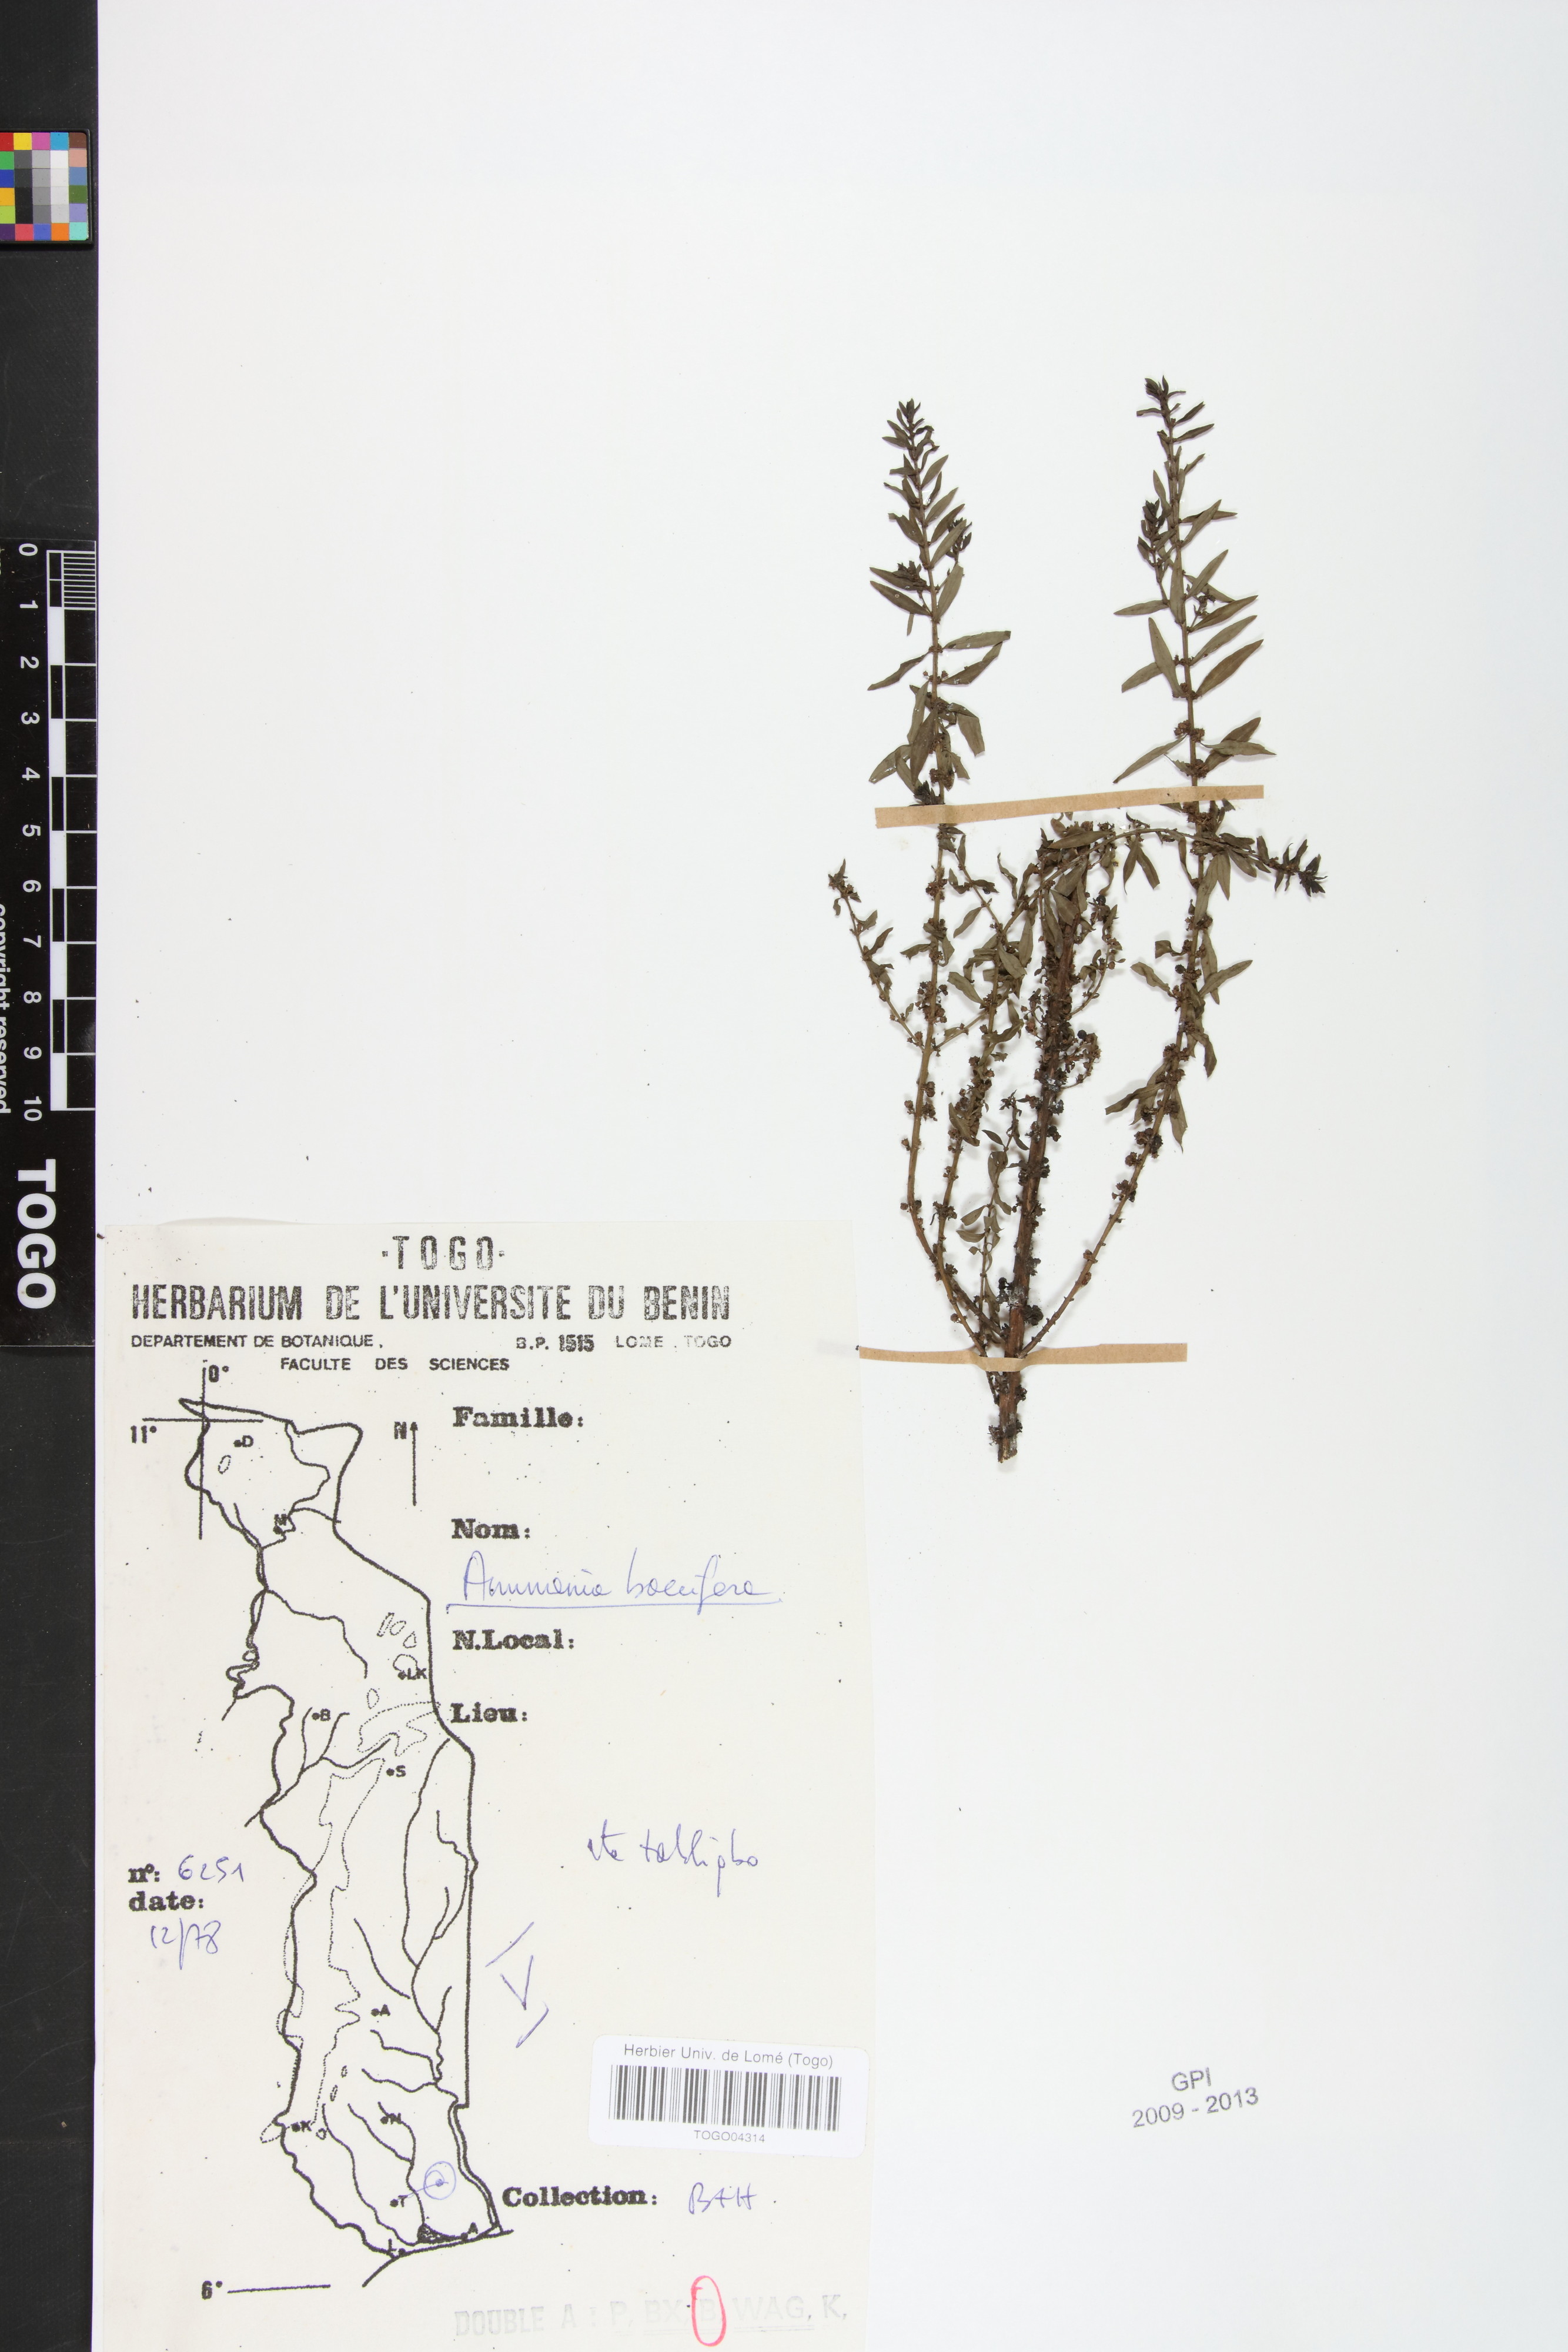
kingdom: Plantae
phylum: Tracheophyta
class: Magnoliopsida
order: Myrtales
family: Lythraceae
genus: Ammannia
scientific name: Ammannia baccifera
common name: Blistering ammania
